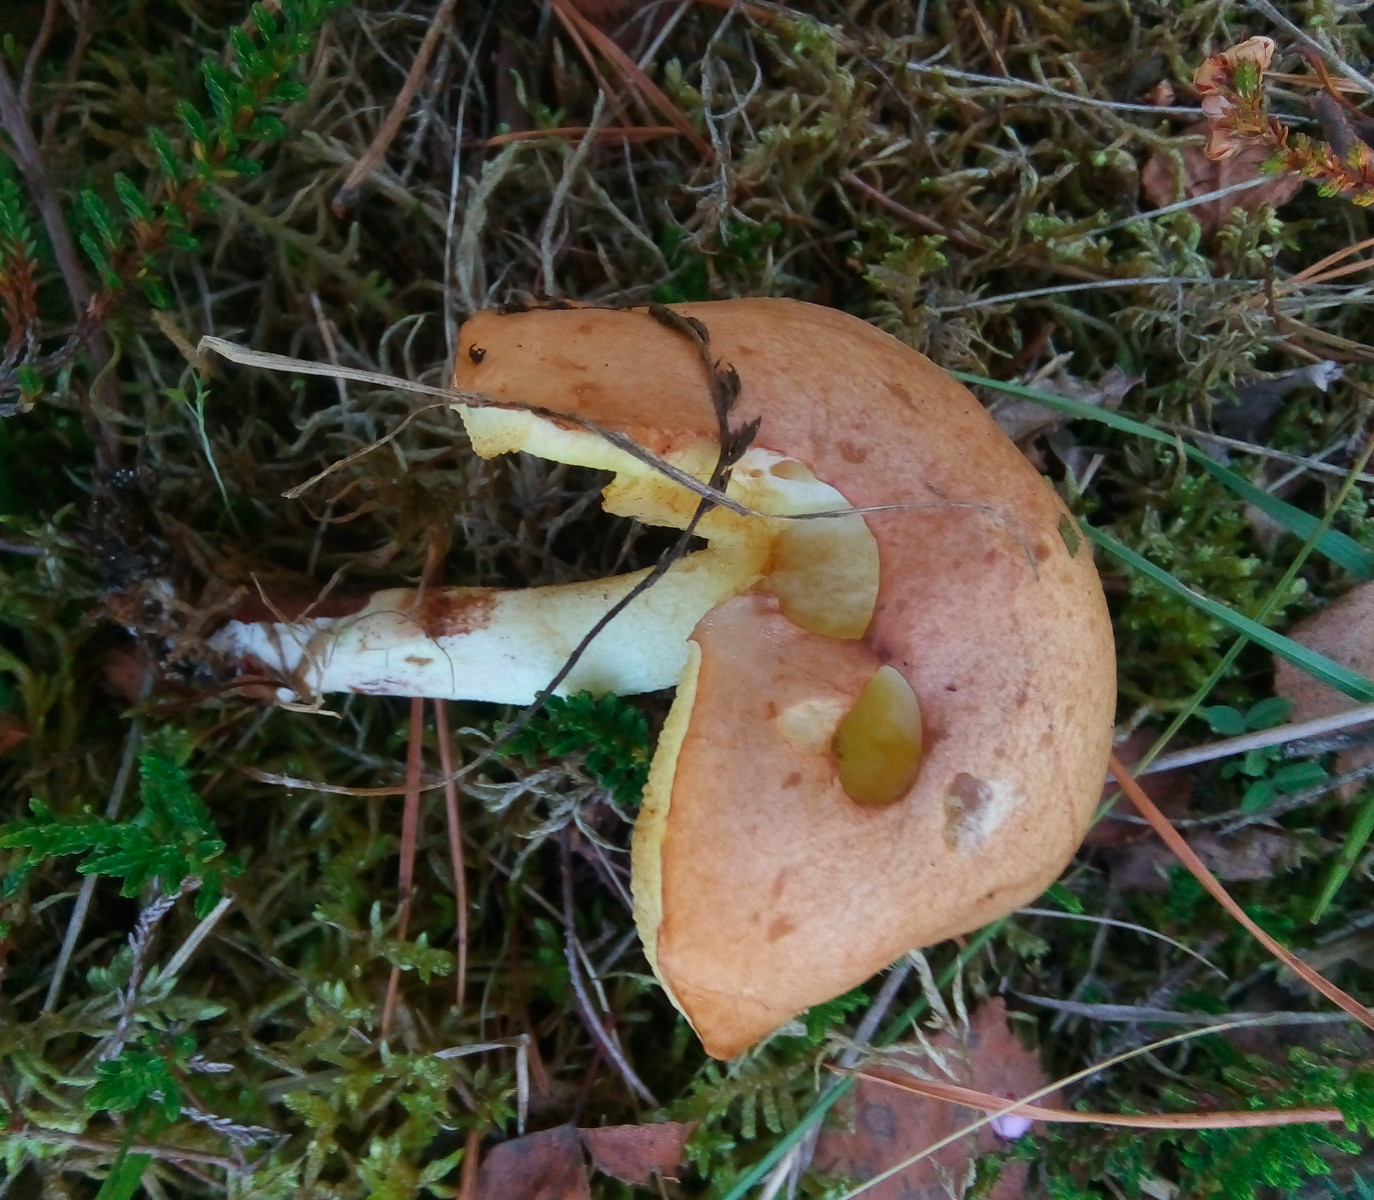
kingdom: Fungi
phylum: Basidiomycota
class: Agaricomycetes
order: Boletales
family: Suillaceae
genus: Suillus
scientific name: Suillus granulatus
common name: kornet slimrørhat
